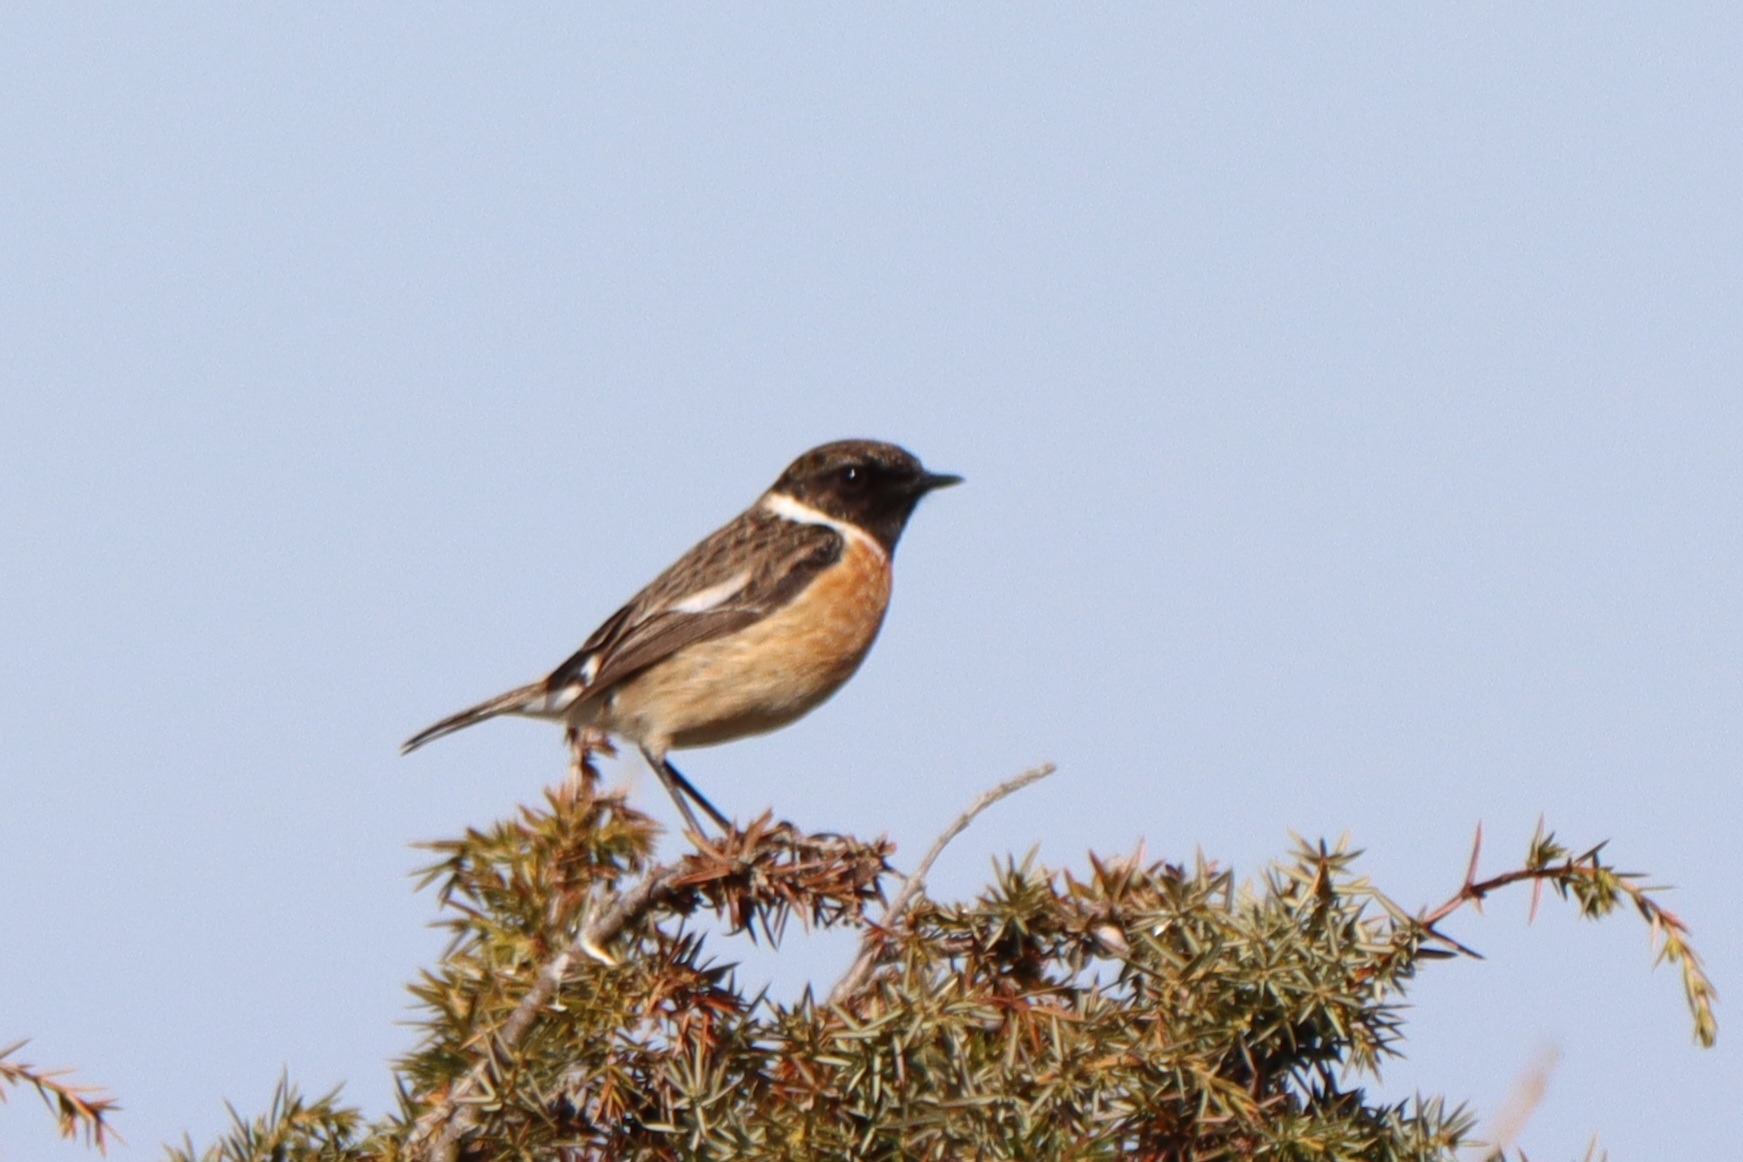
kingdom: Animalia
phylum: Chordata
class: Aves
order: Passeriformes
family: Muscicapidae
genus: Saxicola
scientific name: Saxicola rubicola
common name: Sortstrubet bynkefugl
